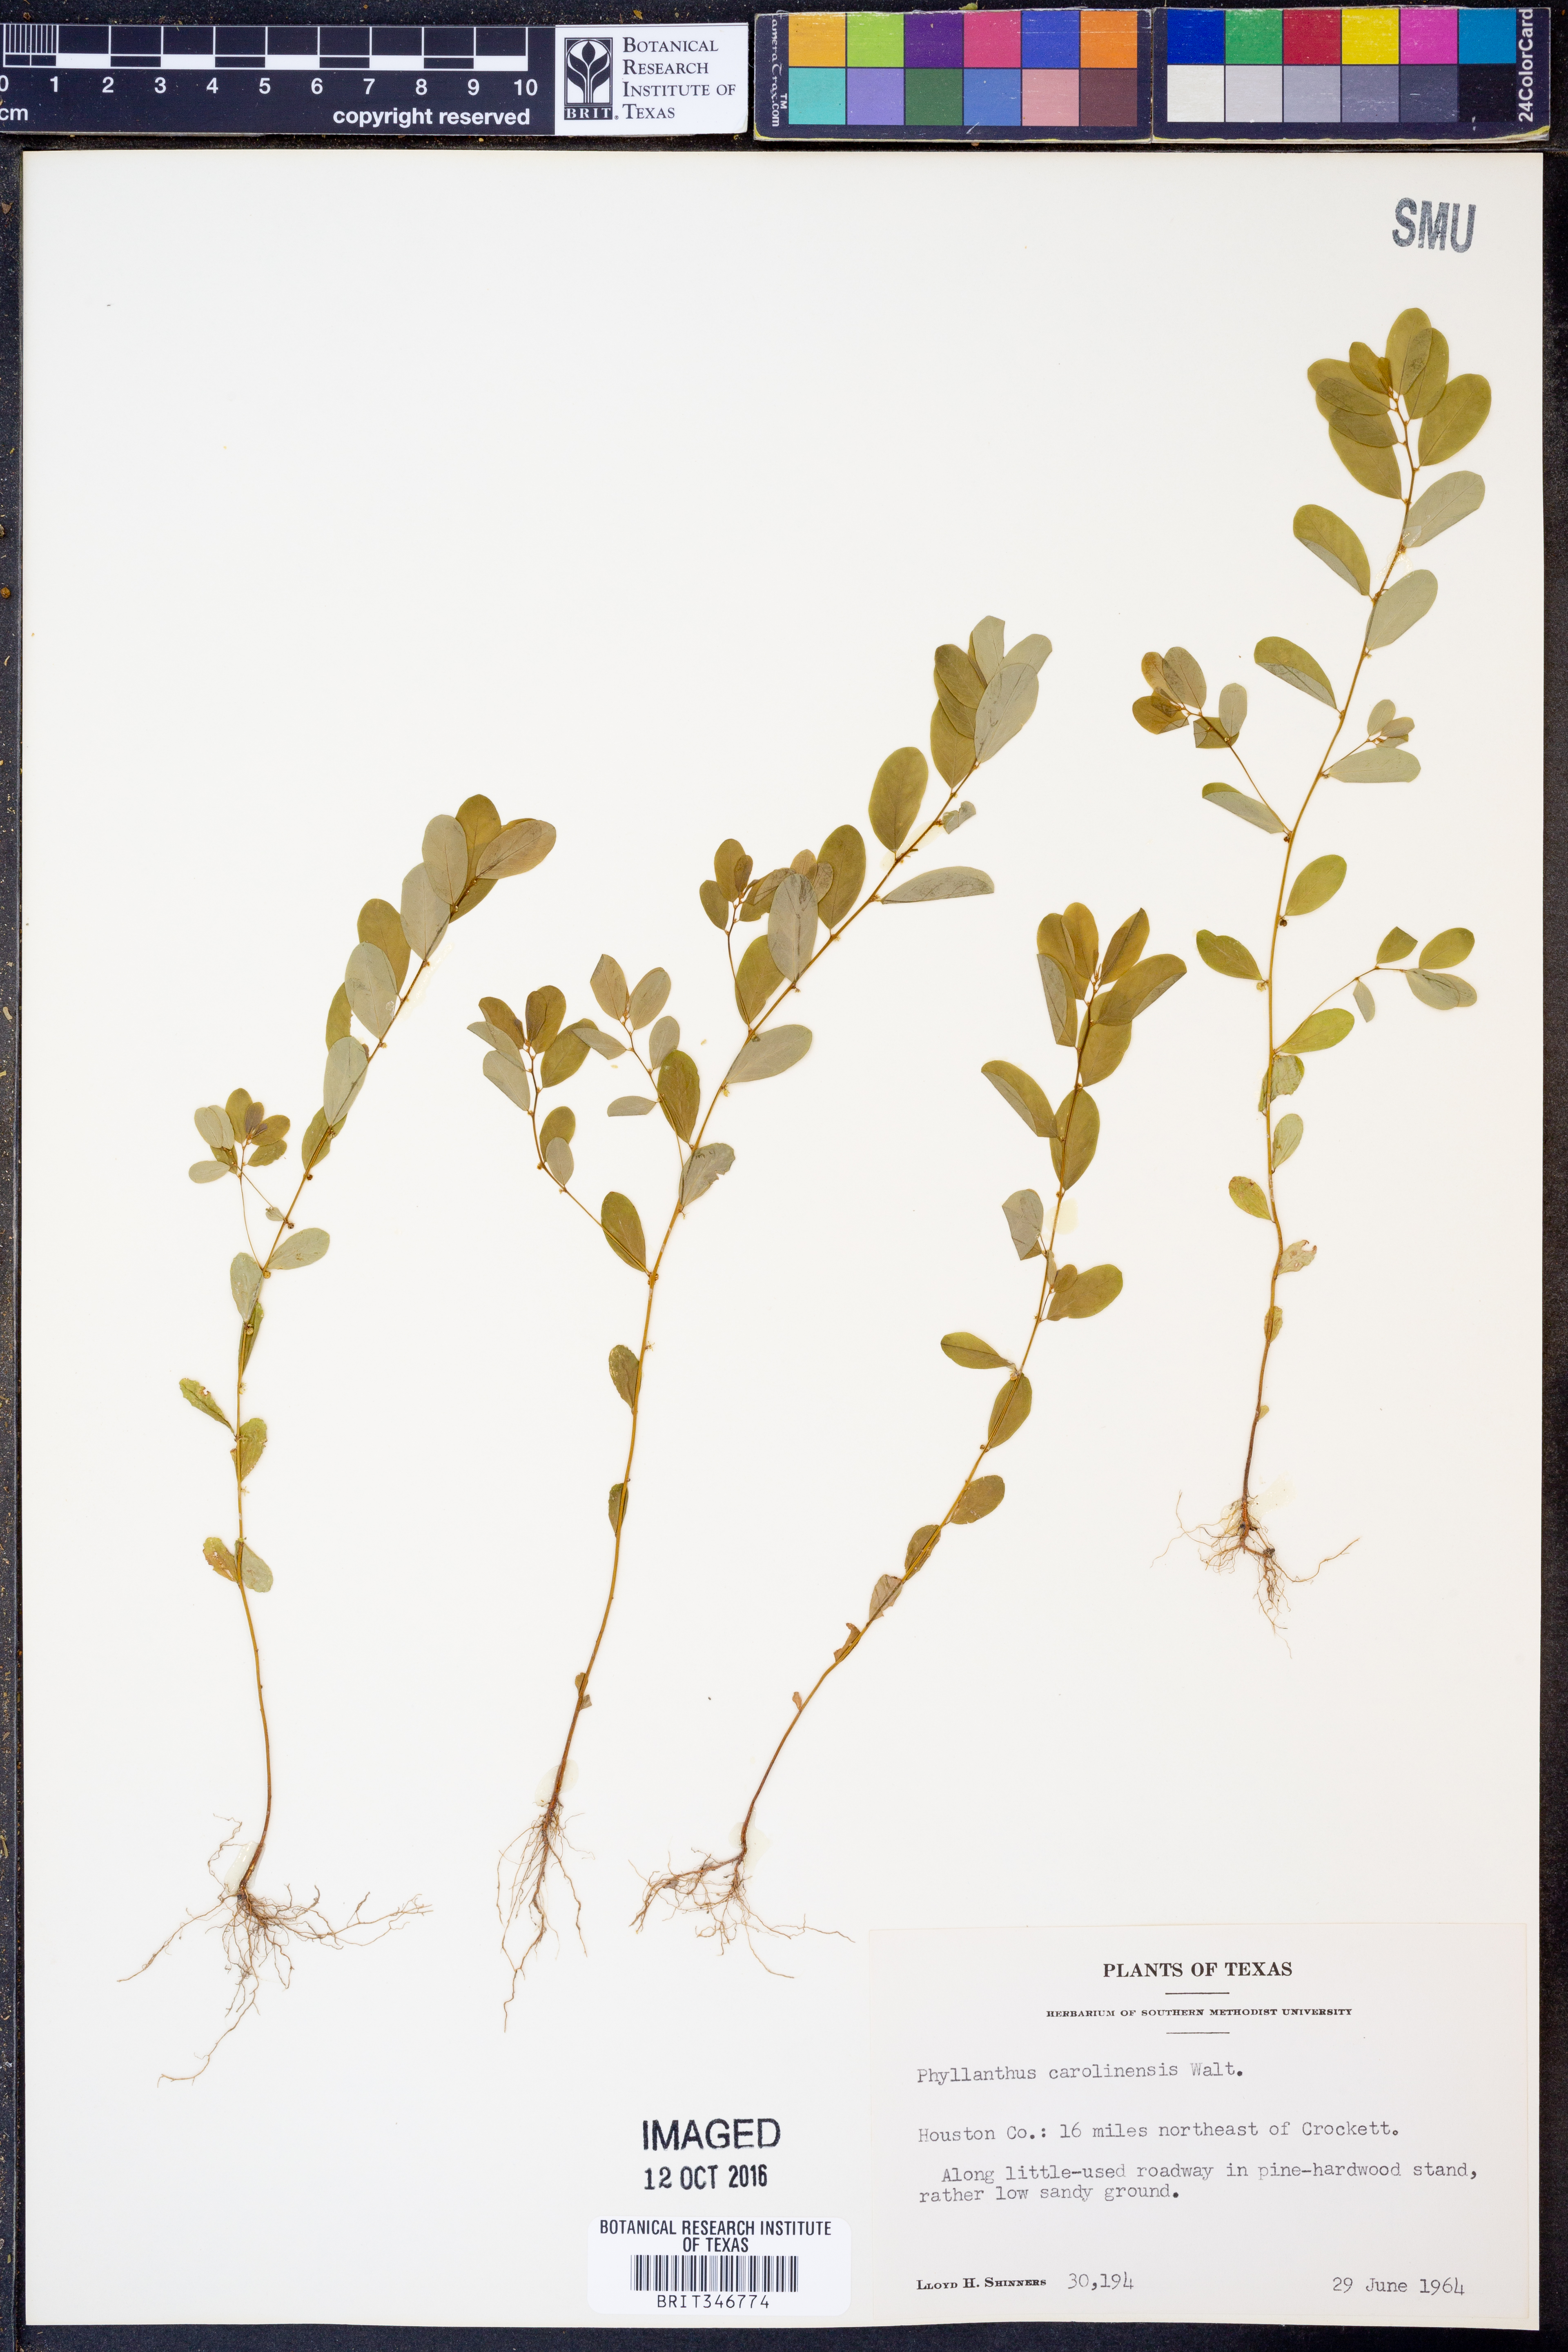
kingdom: Plantae
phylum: Tracheophyta
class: Magnoliopsida
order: Malpighiales
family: Phyllanthaceae
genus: Phyllanthus
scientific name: Phyllanthus carolinensis
